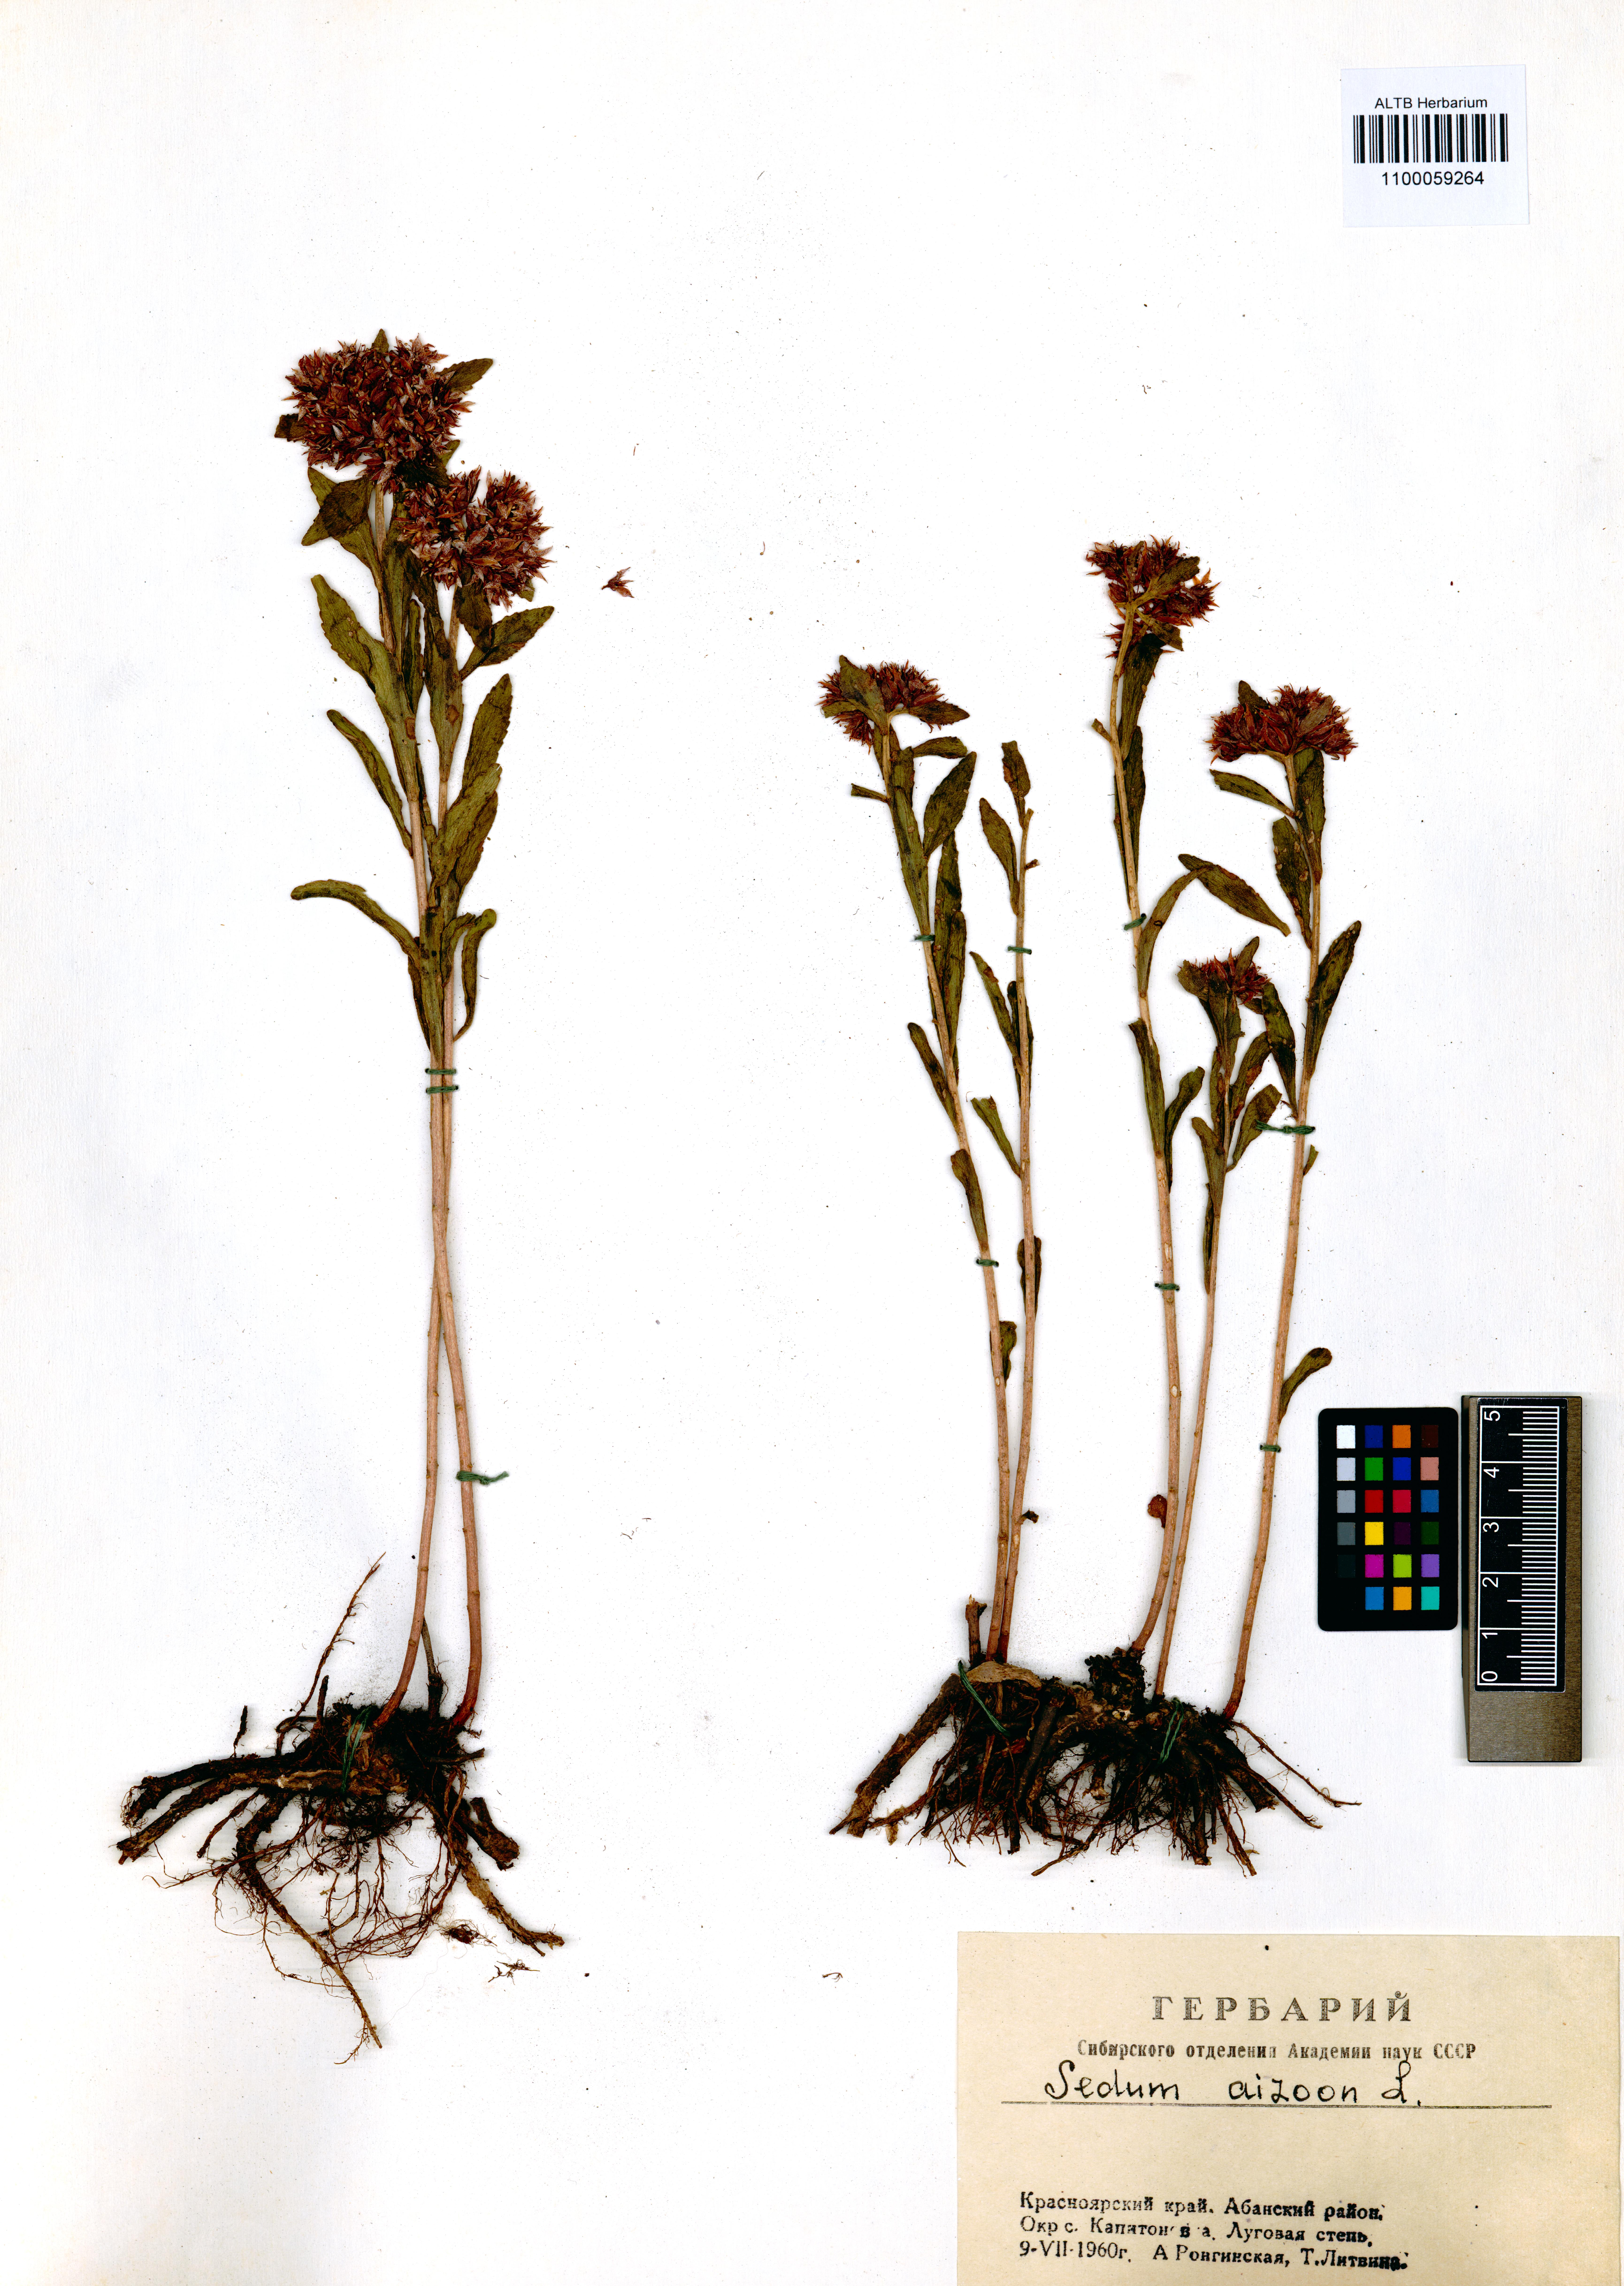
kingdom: Plantae
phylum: Tracheophyta
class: Magnoliopsida
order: Saxifragales
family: Crassulaceae
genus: Phedimus
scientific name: Phedimus aizoon
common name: Orpin aizoon
